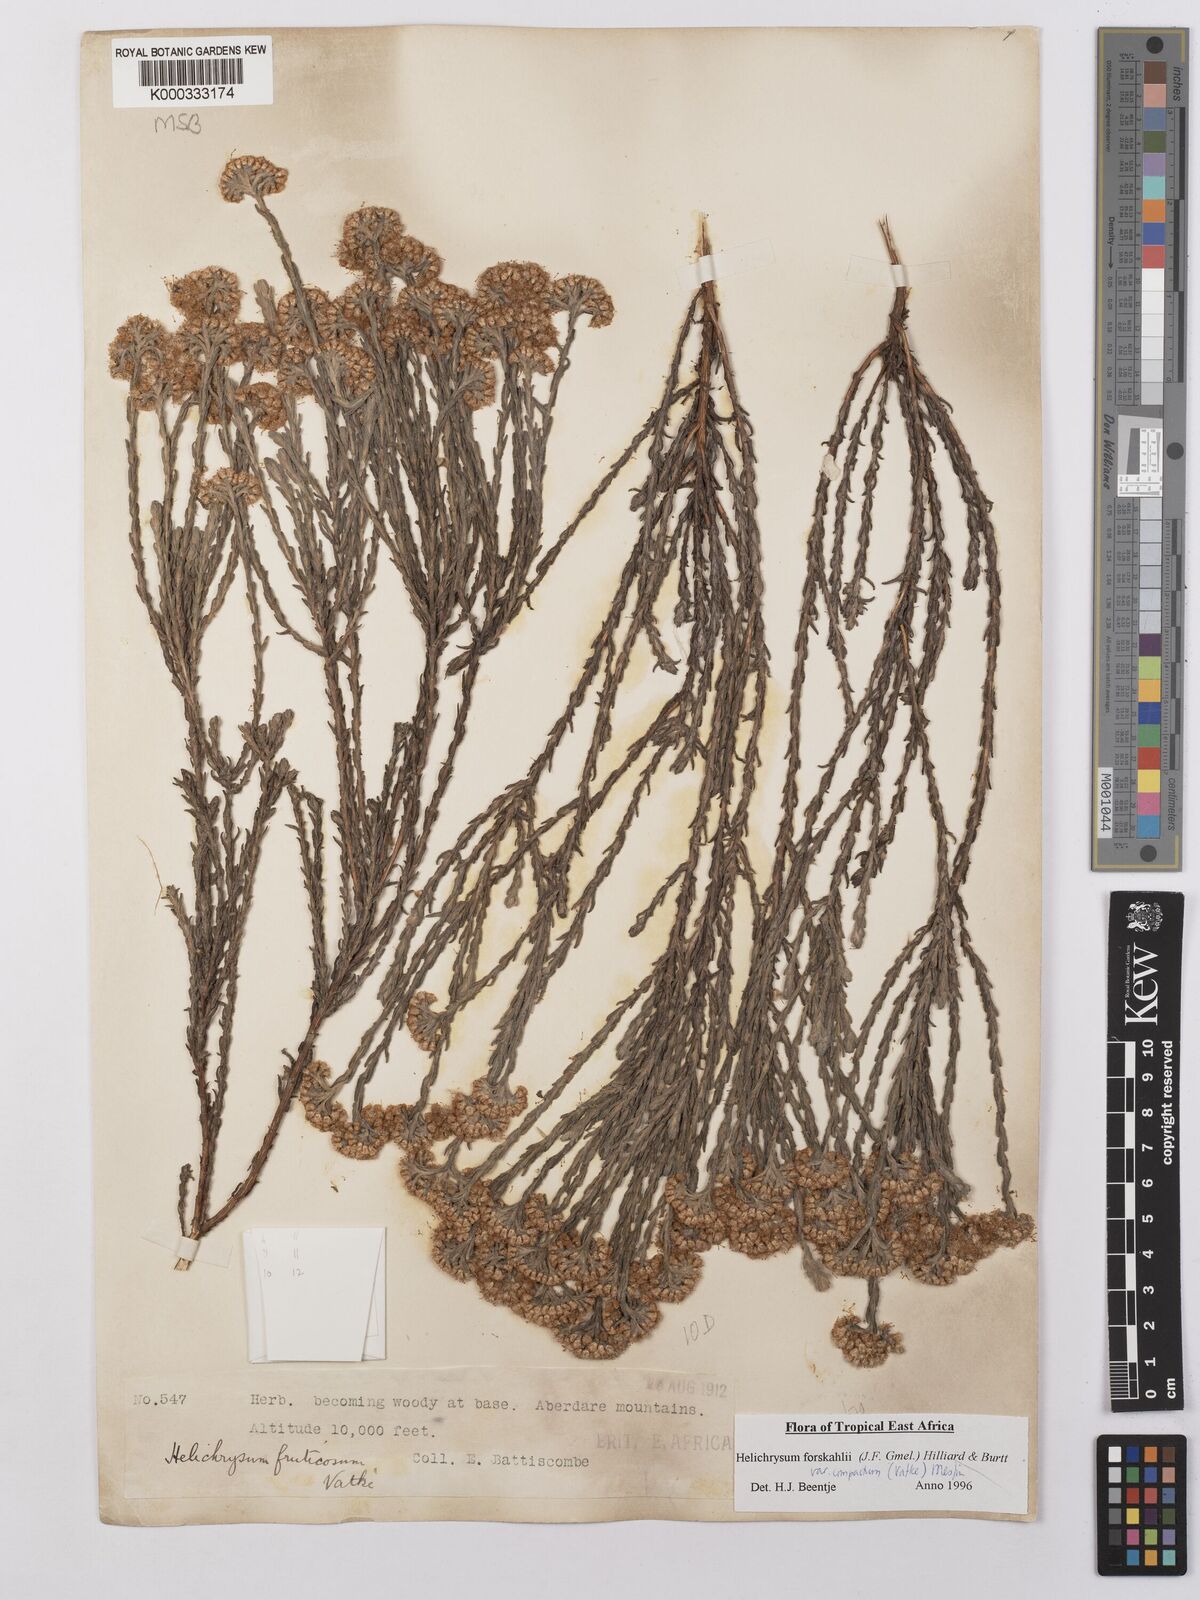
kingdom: Plantae
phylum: Tracheophyta
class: Magnoliopsida
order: Asterales
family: Asteraceae
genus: Helichrysum
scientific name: Helichrysum forskahlii
